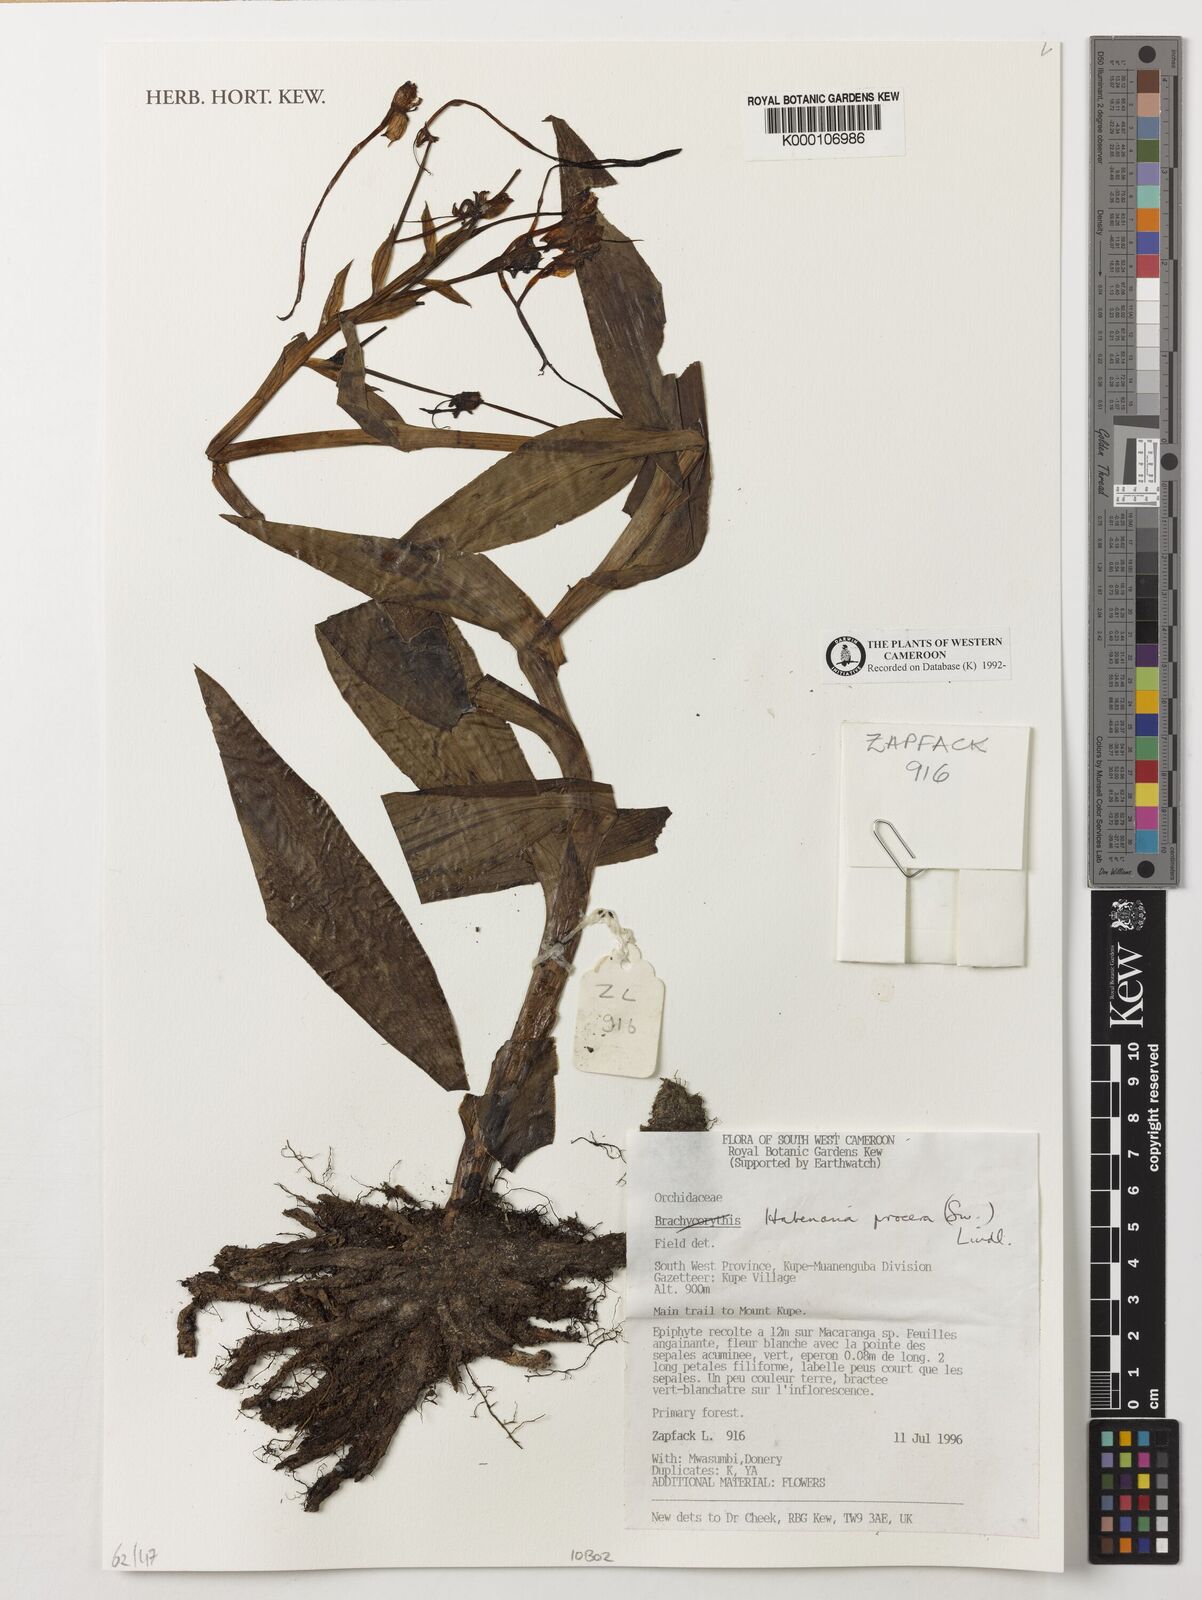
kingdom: Plantae
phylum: Tracheophyta
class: Liliopsida
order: Asparagales
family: Orchidaceae
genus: Habenaria
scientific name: Habenaria procera
